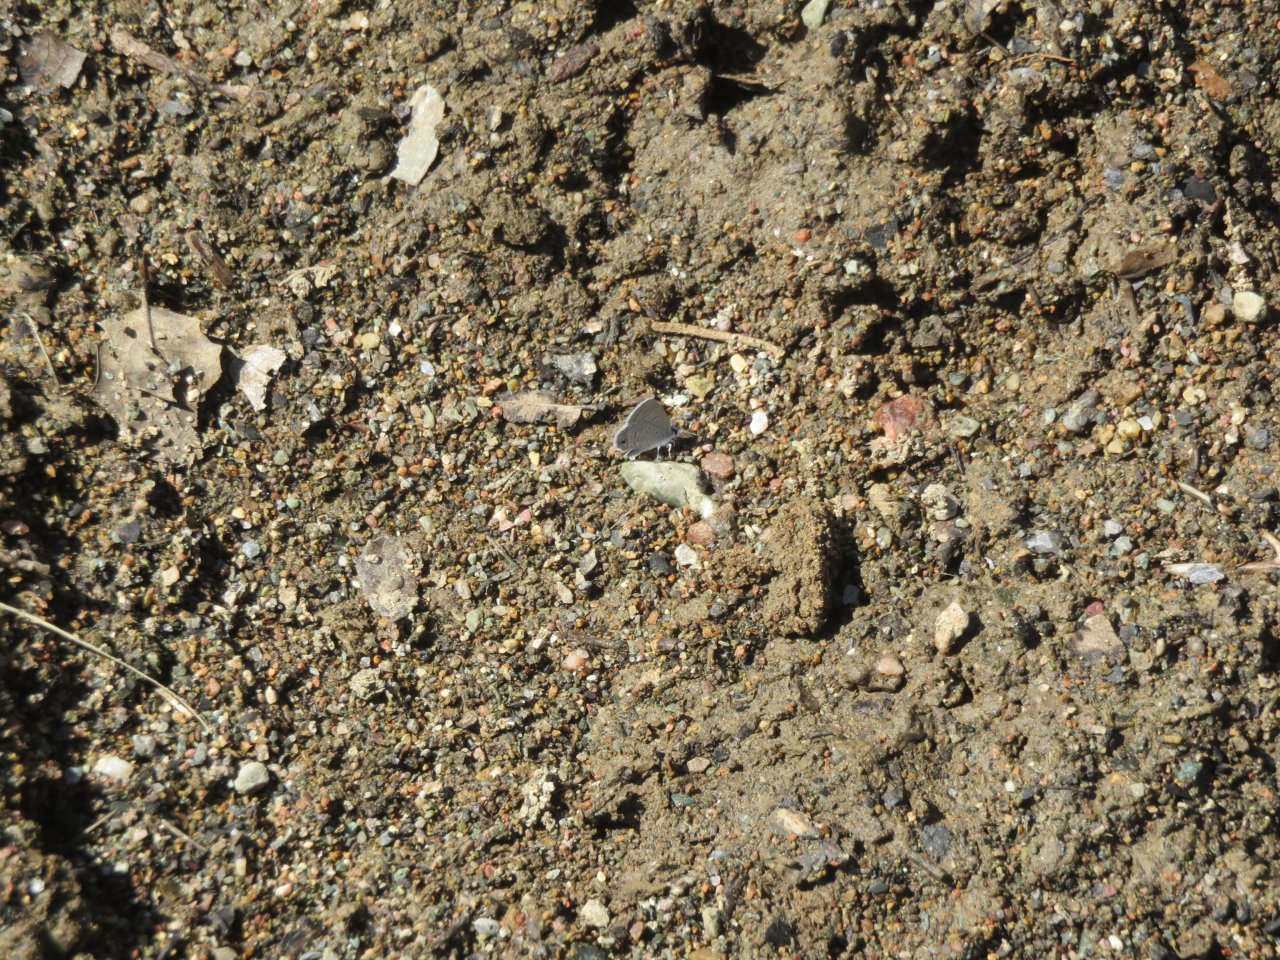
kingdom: Animalia
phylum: Arthropoda
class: Insecta
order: Lepidoptera
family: Lycaenidae
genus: Hemiargus
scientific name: Hemiargus ceraunus
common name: Ceraunus Blue
